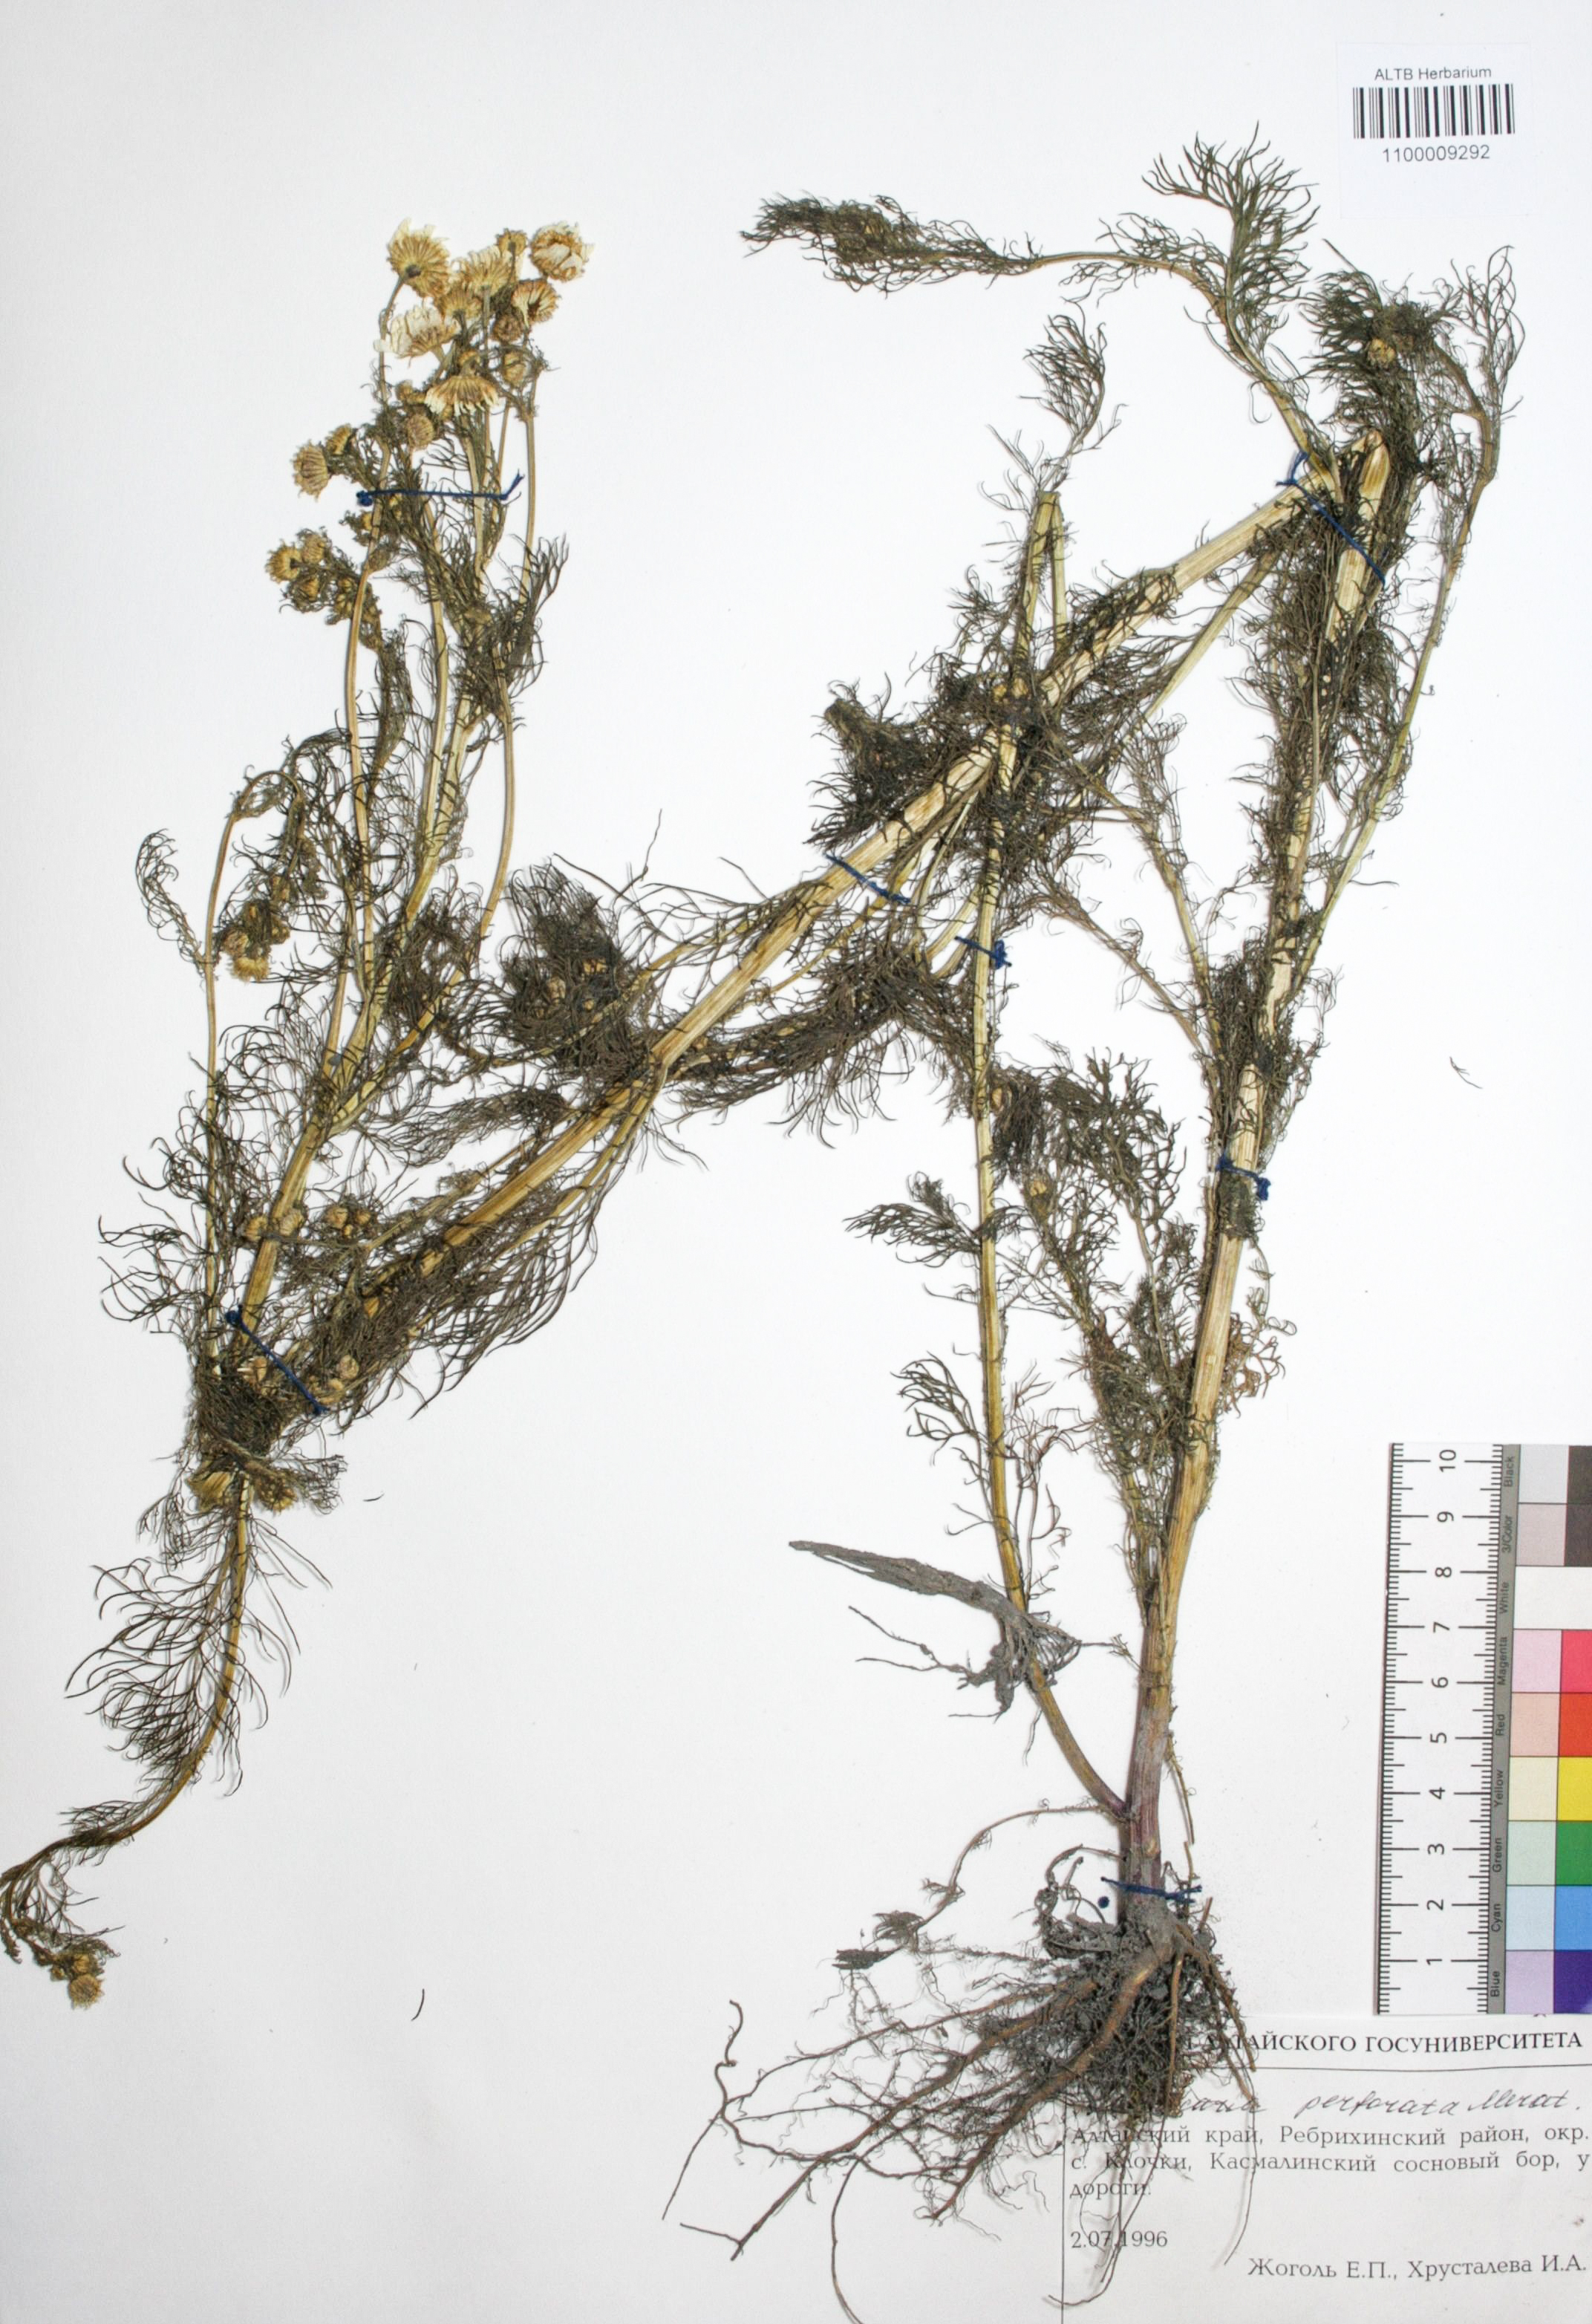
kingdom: Plantae
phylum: Tracheophyta
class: Magnoliopsida
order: Asterales
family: Asteraceae
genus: Tripleurospermum
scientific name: Tripleurospermum inodorum
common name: Scentless mayweed
